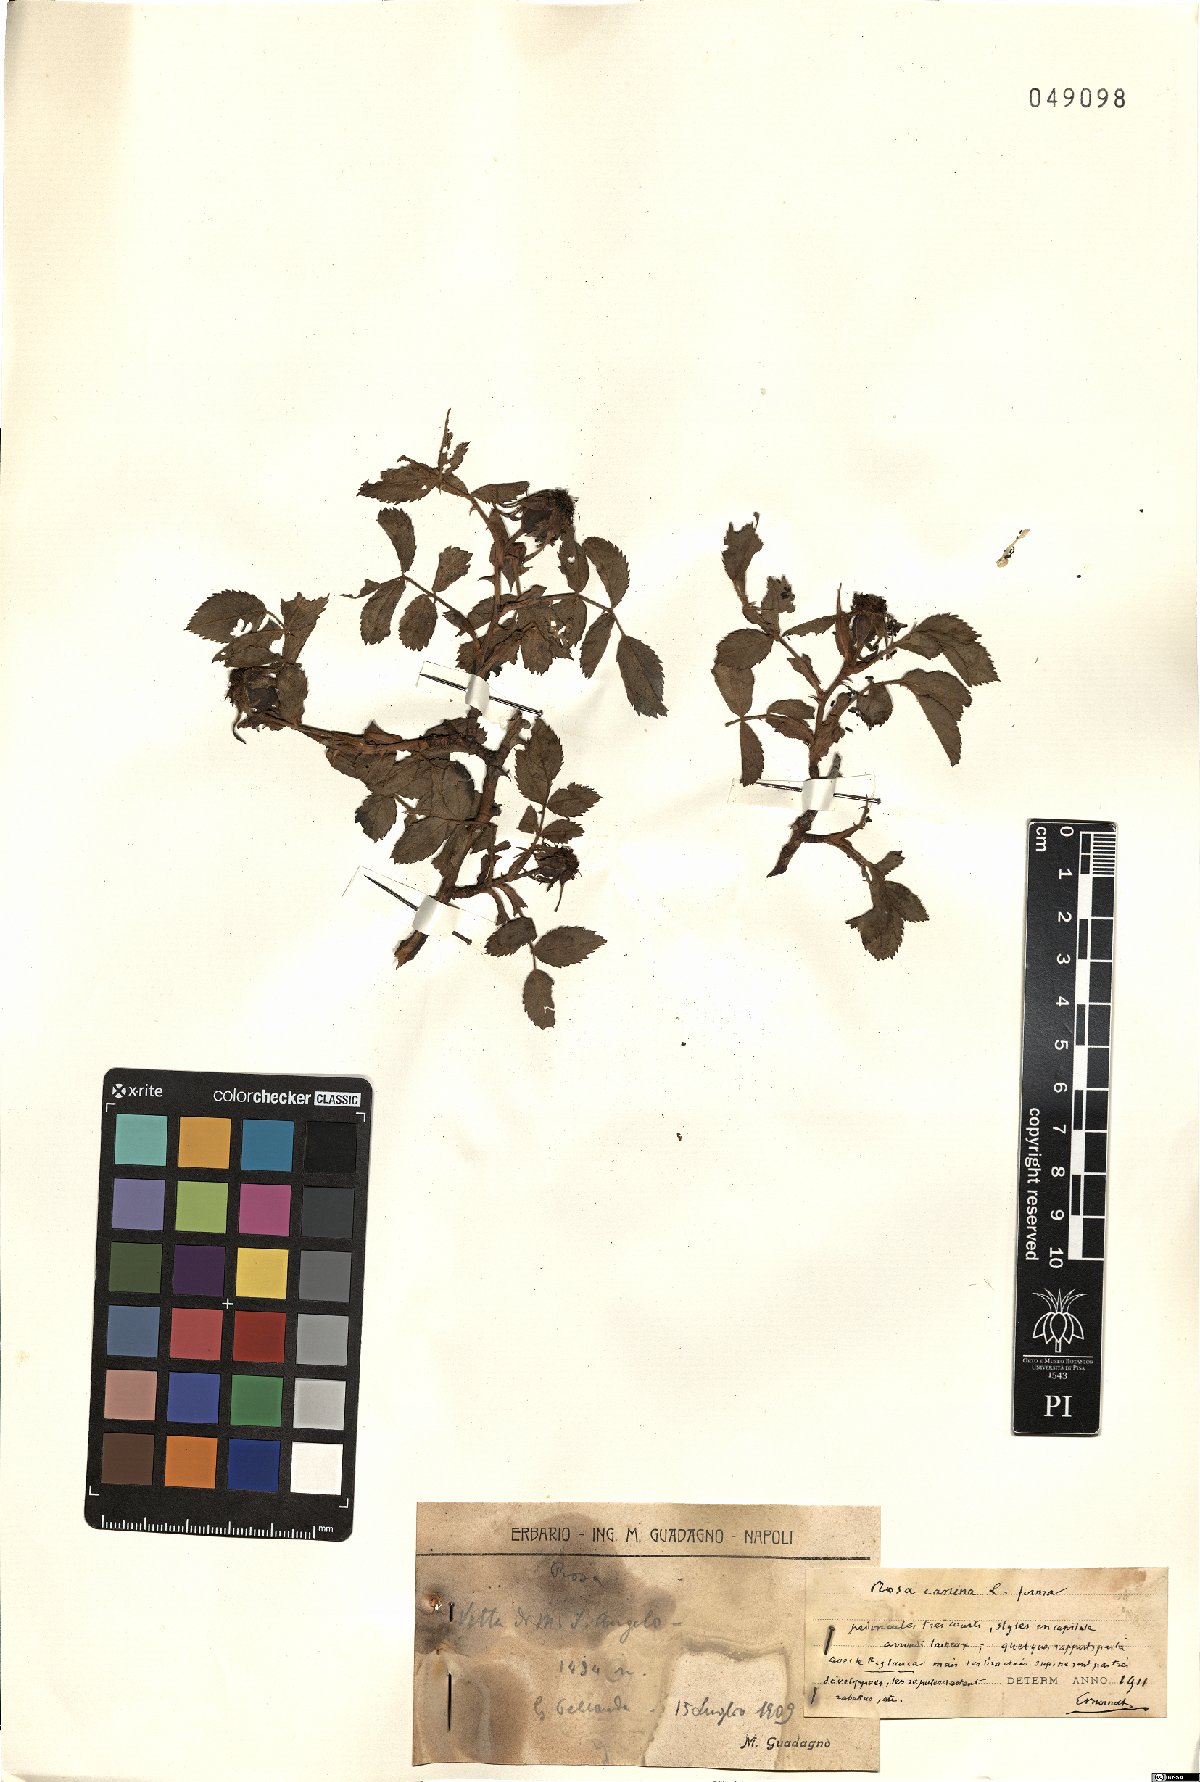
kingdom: Plantae
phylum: Tracheophyta
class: Magnoliopsida
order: Rosales
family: Rosaceae
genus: Rosa
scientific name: Rosa canina
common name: Dog rose
